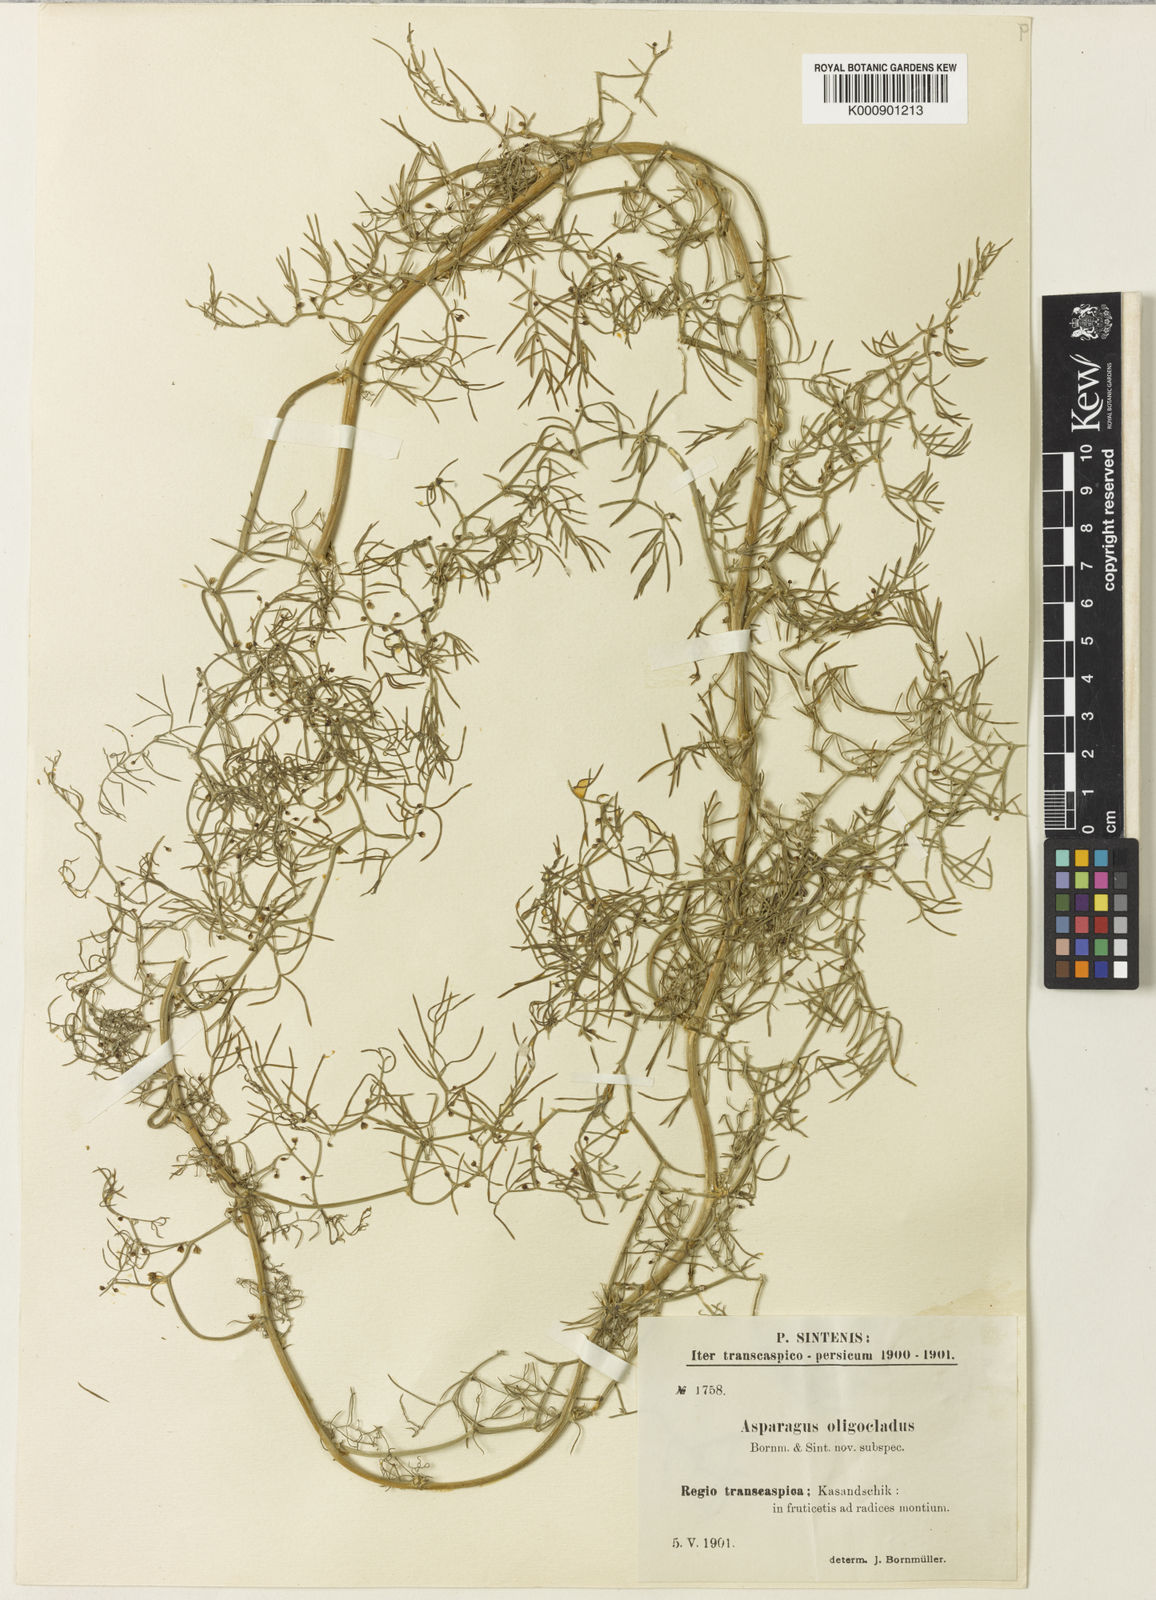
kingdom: Plantae
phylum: Tracheophyta
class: Liliopsida
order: Asparagales
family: Asparagaceae
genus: Asparagus
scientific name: Asparagus
